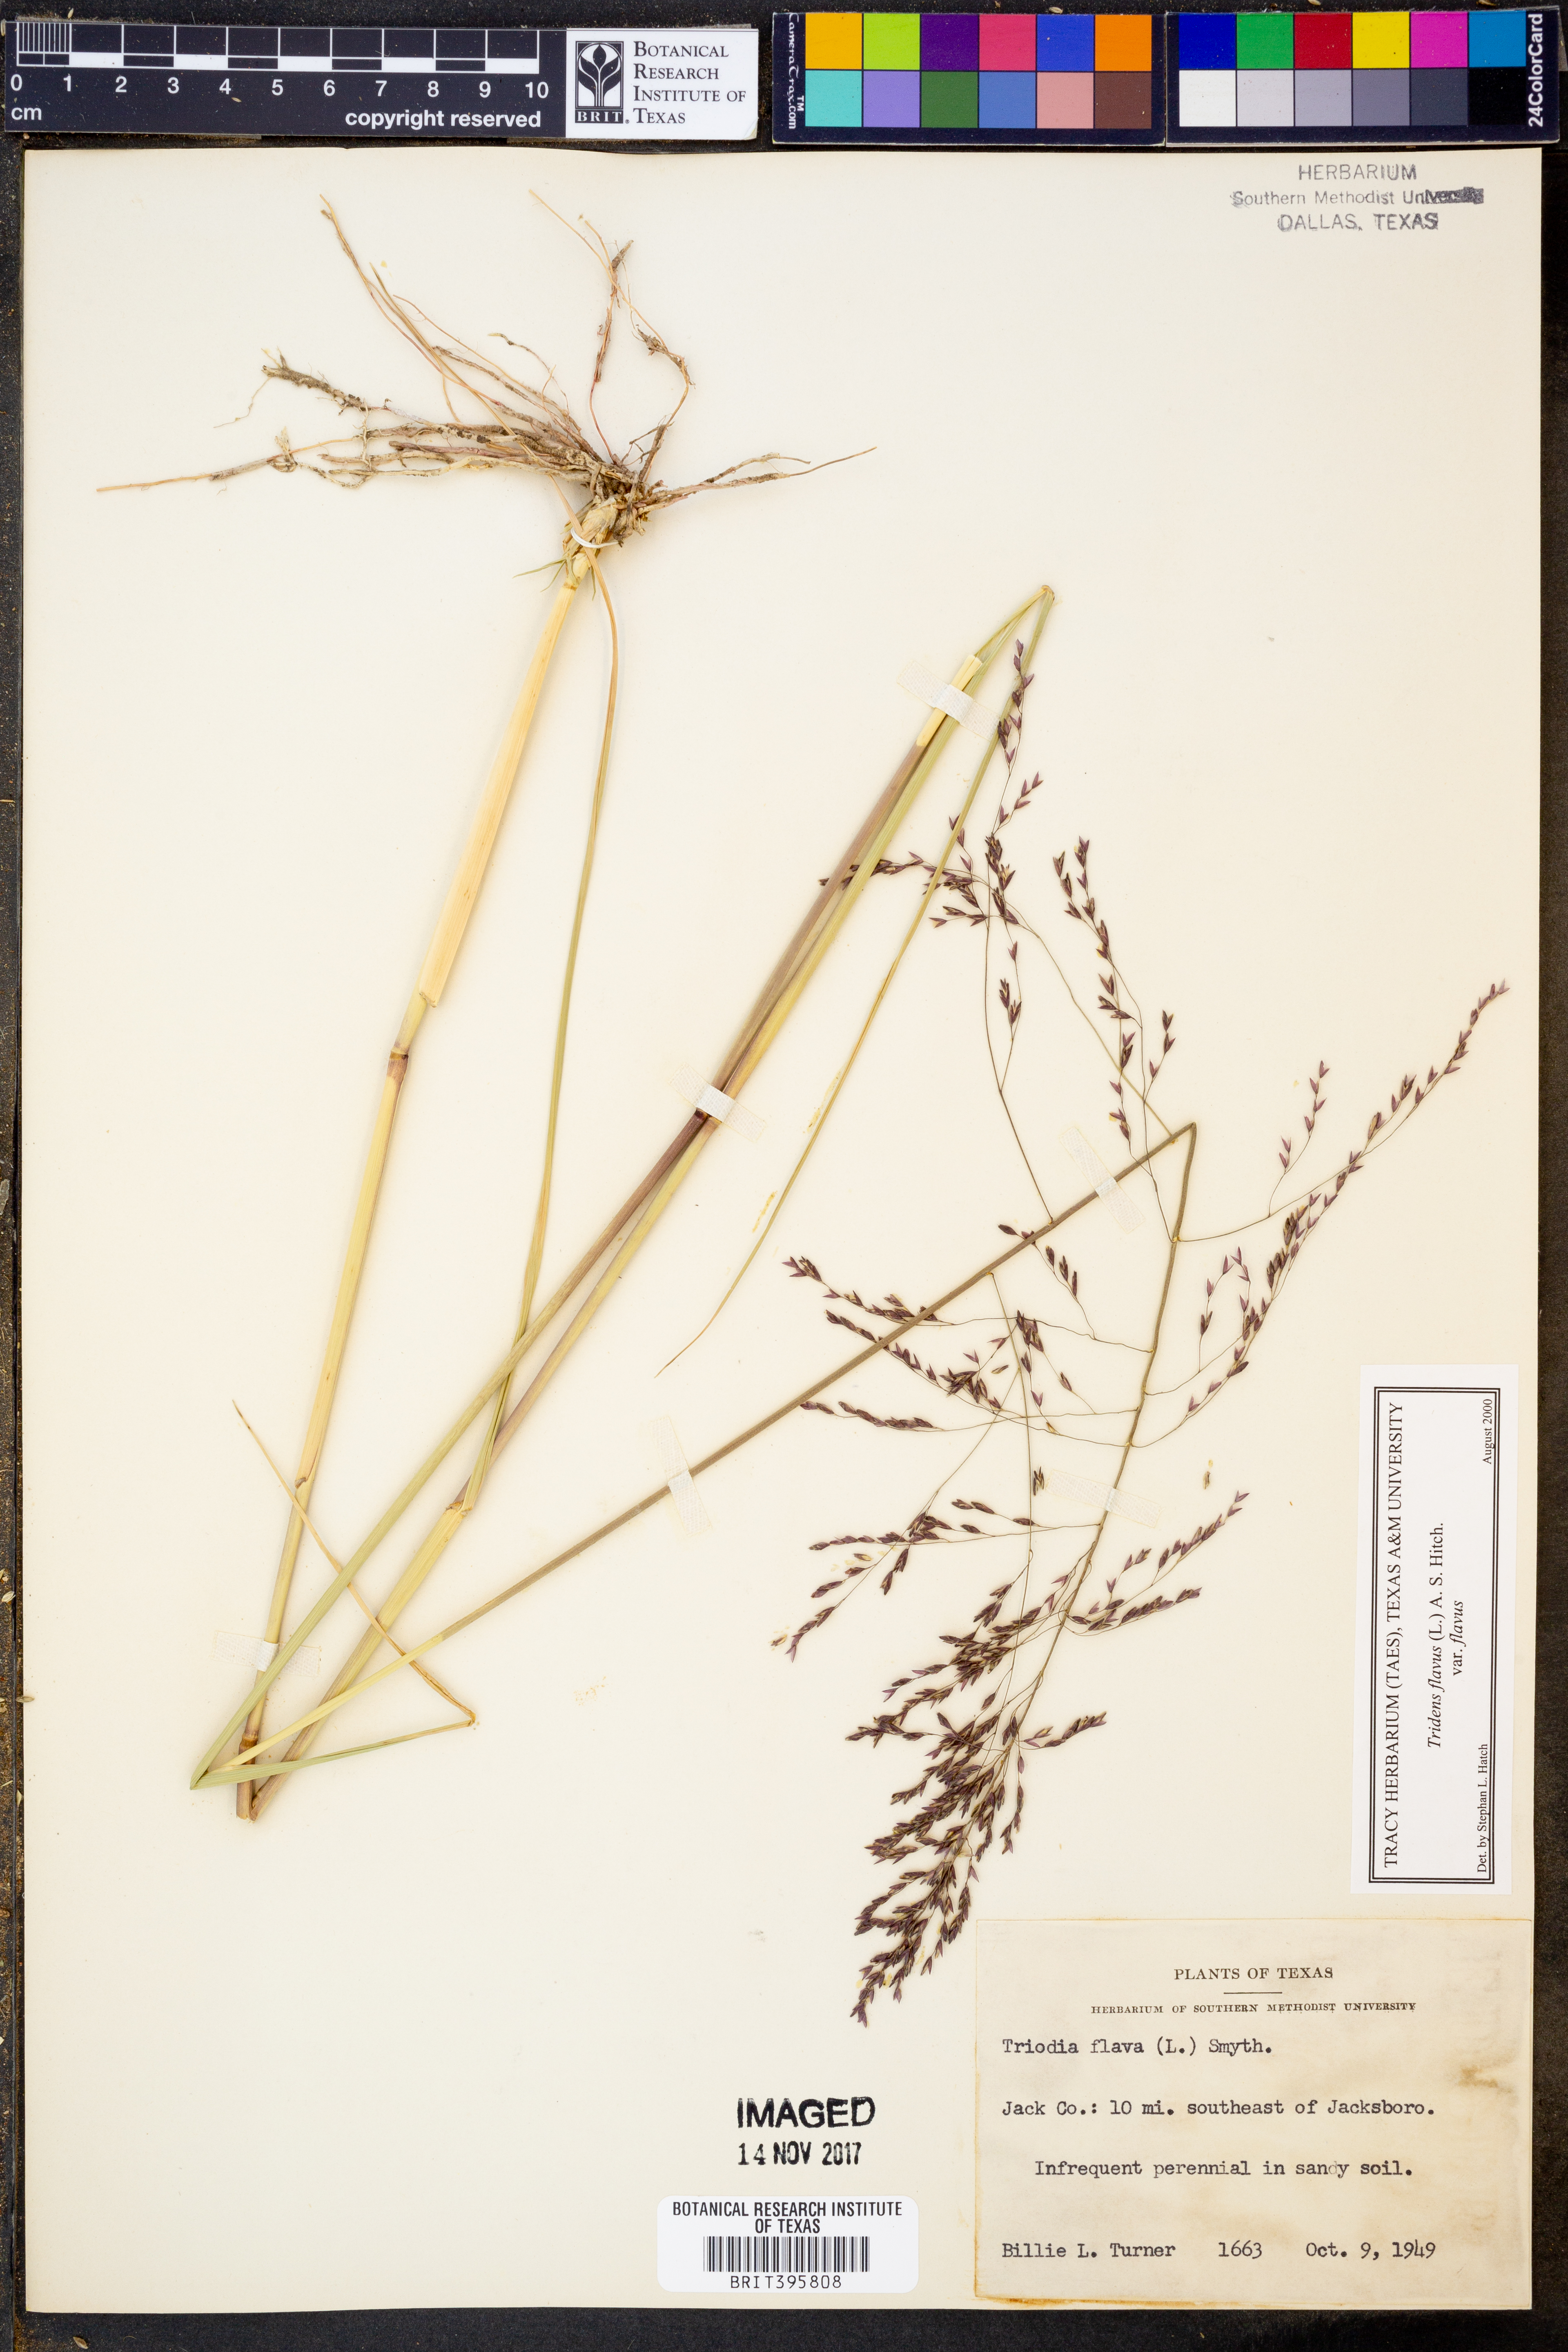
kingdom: Plantae
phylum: Tracheophyta
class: Liliopsida
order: Poales
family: Poaceae
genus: Tridens
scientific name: Tridens flavus
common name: Purpletop
